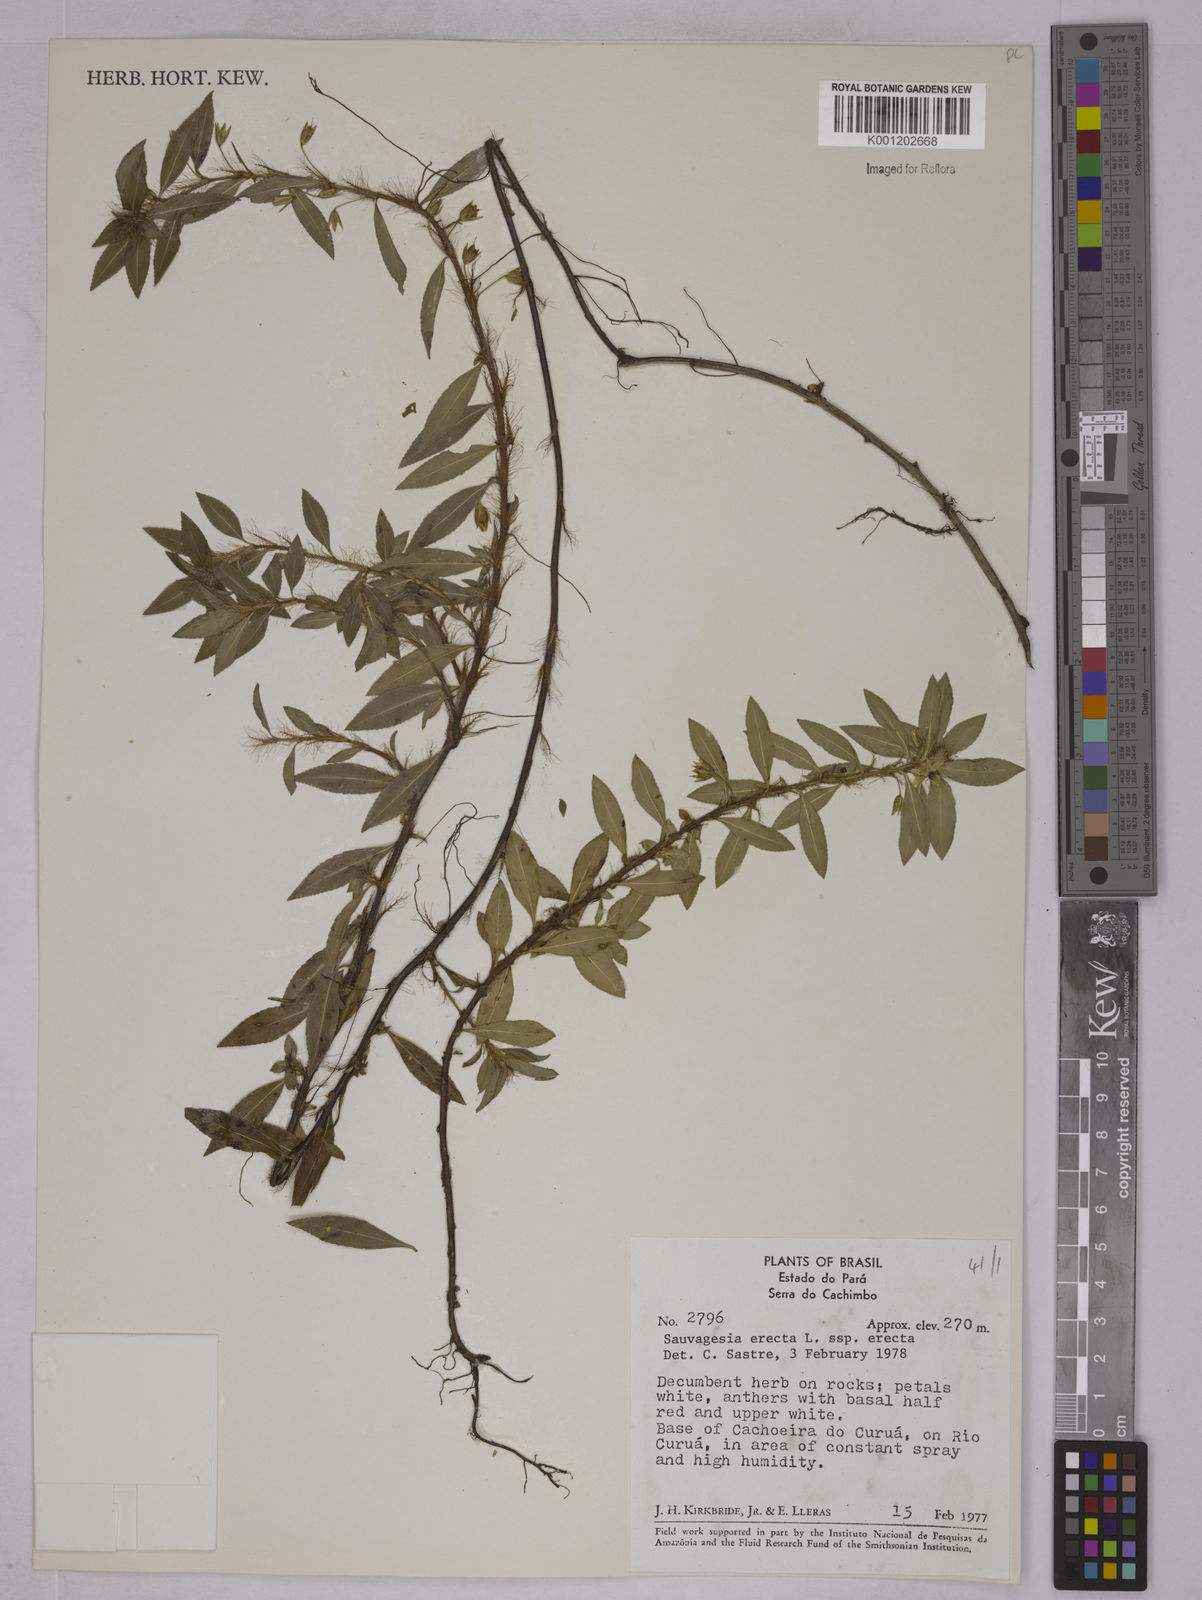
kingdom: Plantae
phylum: Tracheophyta
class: Magnoliopsida
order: Malpighiales
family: Ochnaceae
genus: Sauvagesia
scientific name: Sauvagesia erecta
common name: Creole tea
